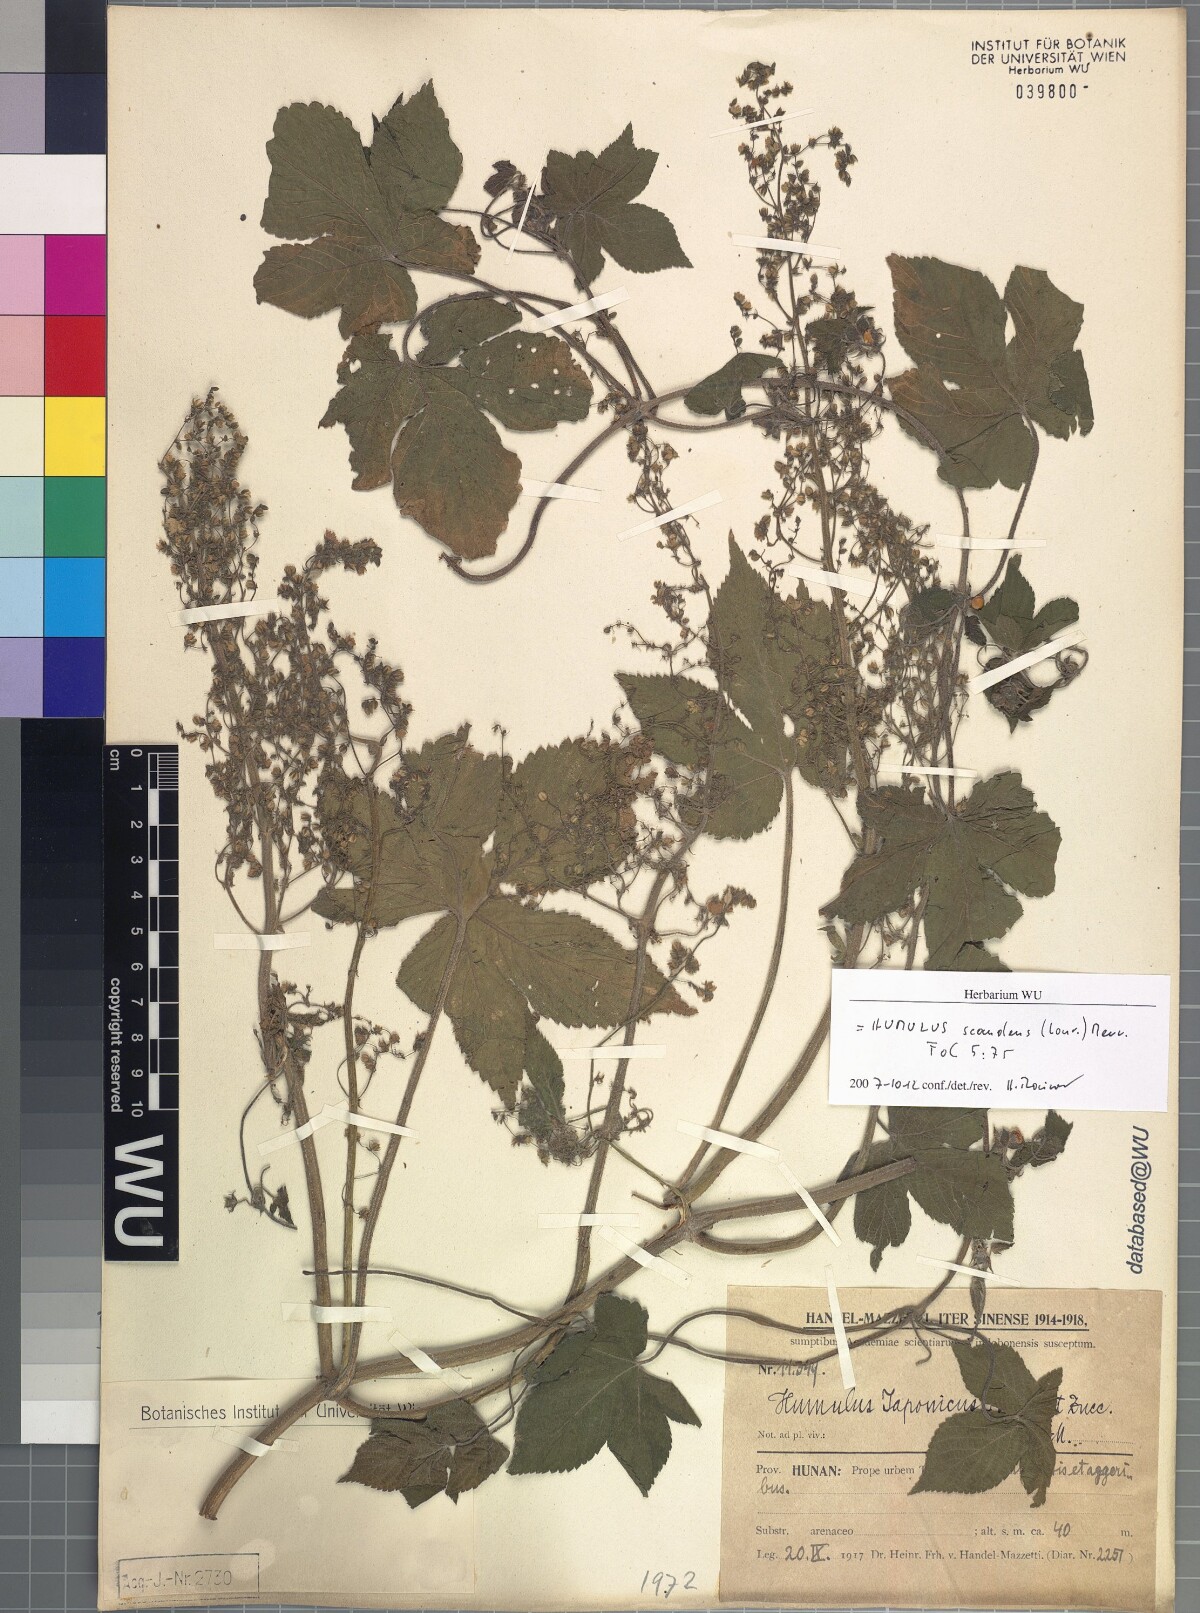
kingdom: Plantae
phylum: Tracheophyta
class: Magnoliopsida
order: Rosales
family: Cannabaceae
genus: Humulus
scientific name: Humulus scandens
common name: Japanese hop
